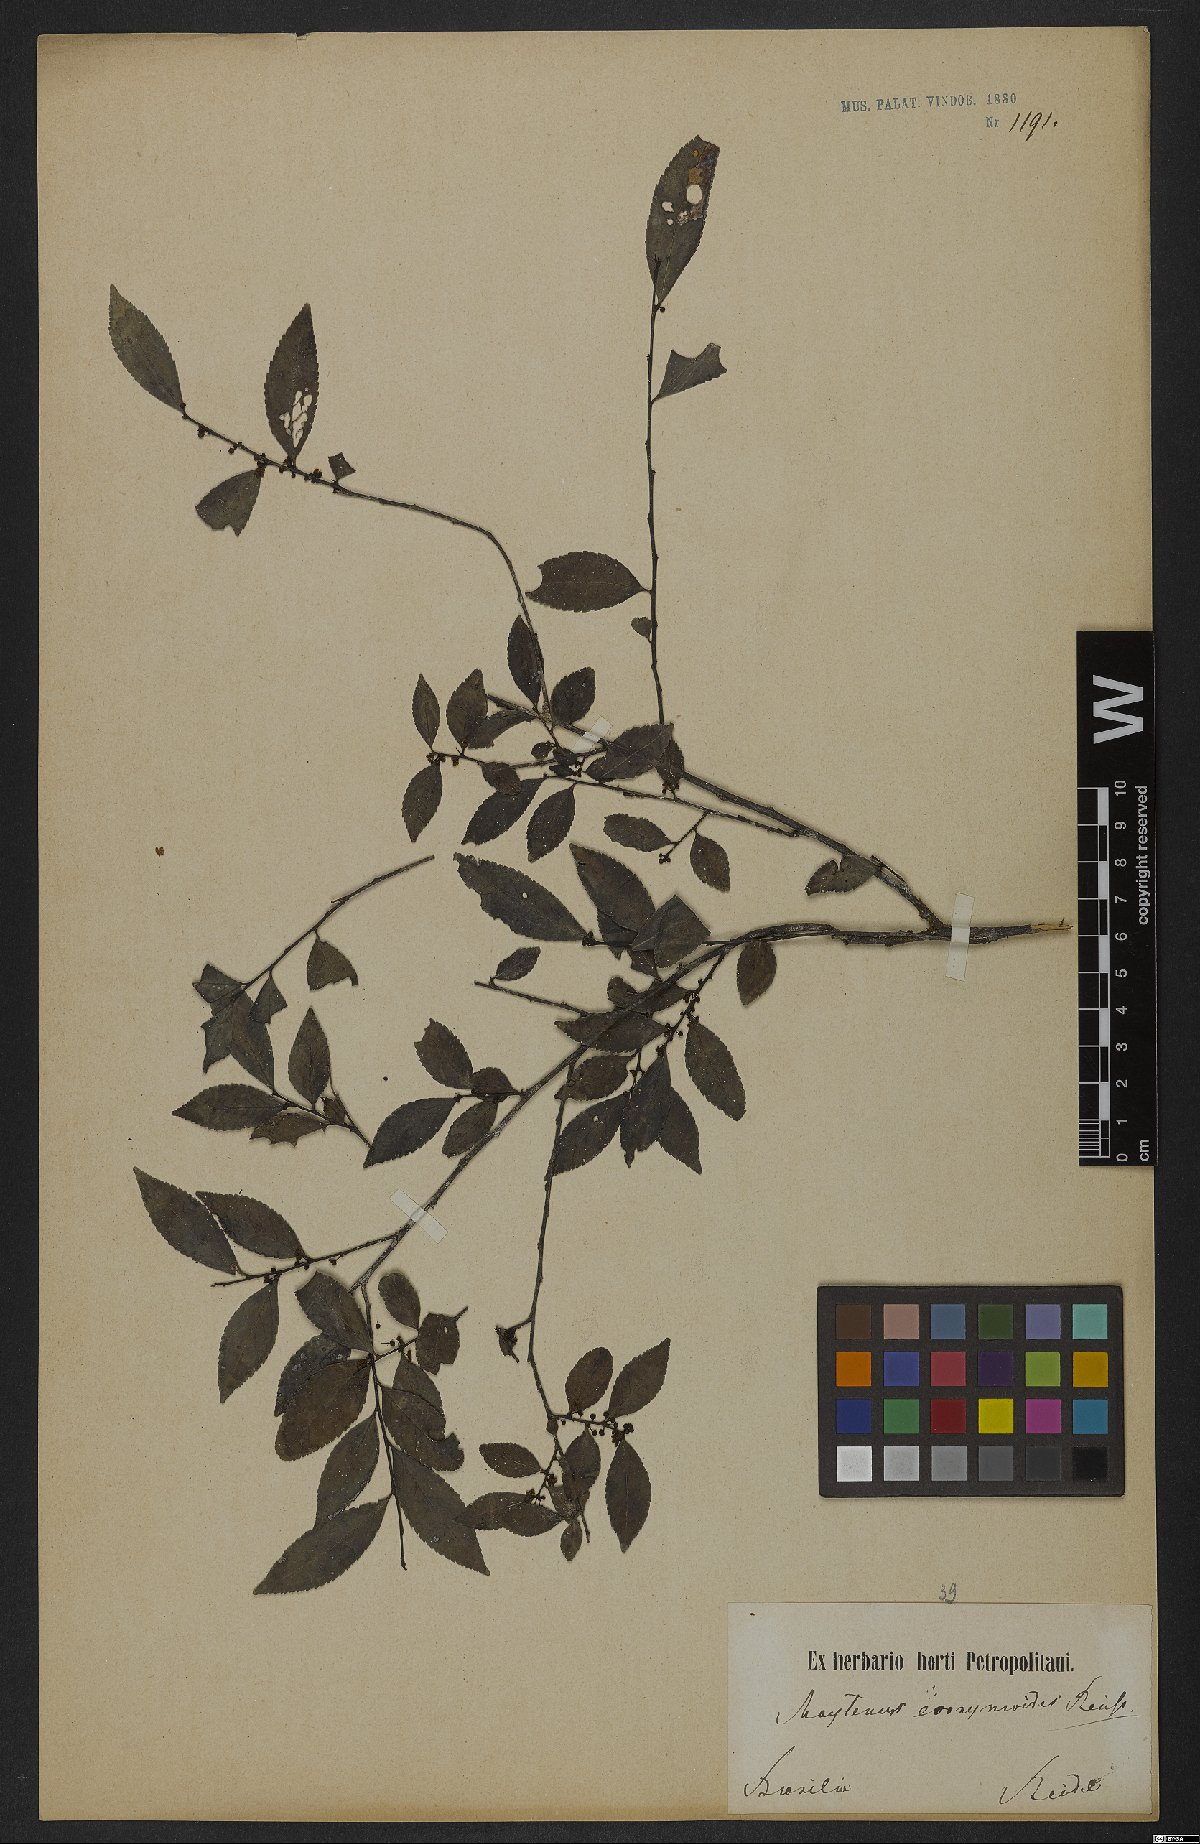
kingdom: Plantae
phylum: Tracheophyta
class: Magnoliopsida
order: Celastrales
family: Celastraceae
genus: Monteverdia
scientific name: Monteverdia evonymoides
